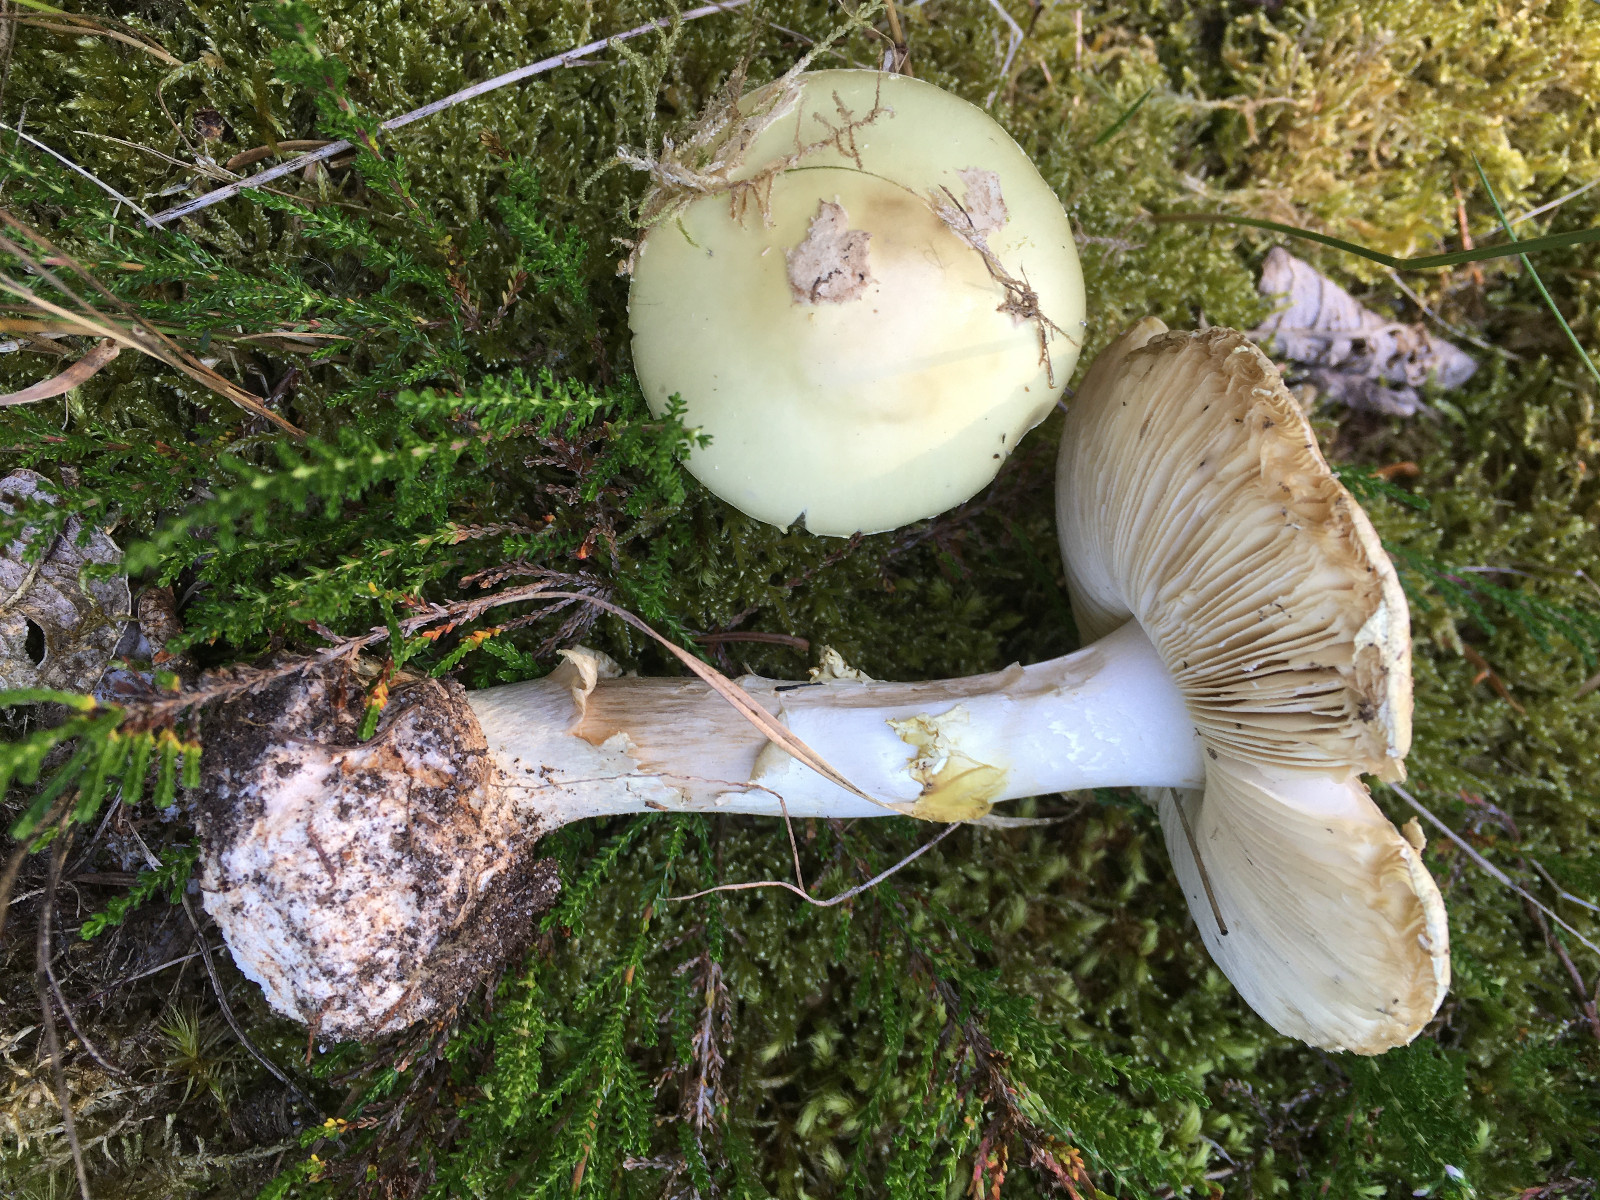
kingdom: Fungi
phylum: Basidiomycota
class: Agaricomycetes
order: Agaricales
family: Amanitaceae
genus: Amanita
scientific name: Amanita citrina
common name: kugleknoldet fluesvamp
